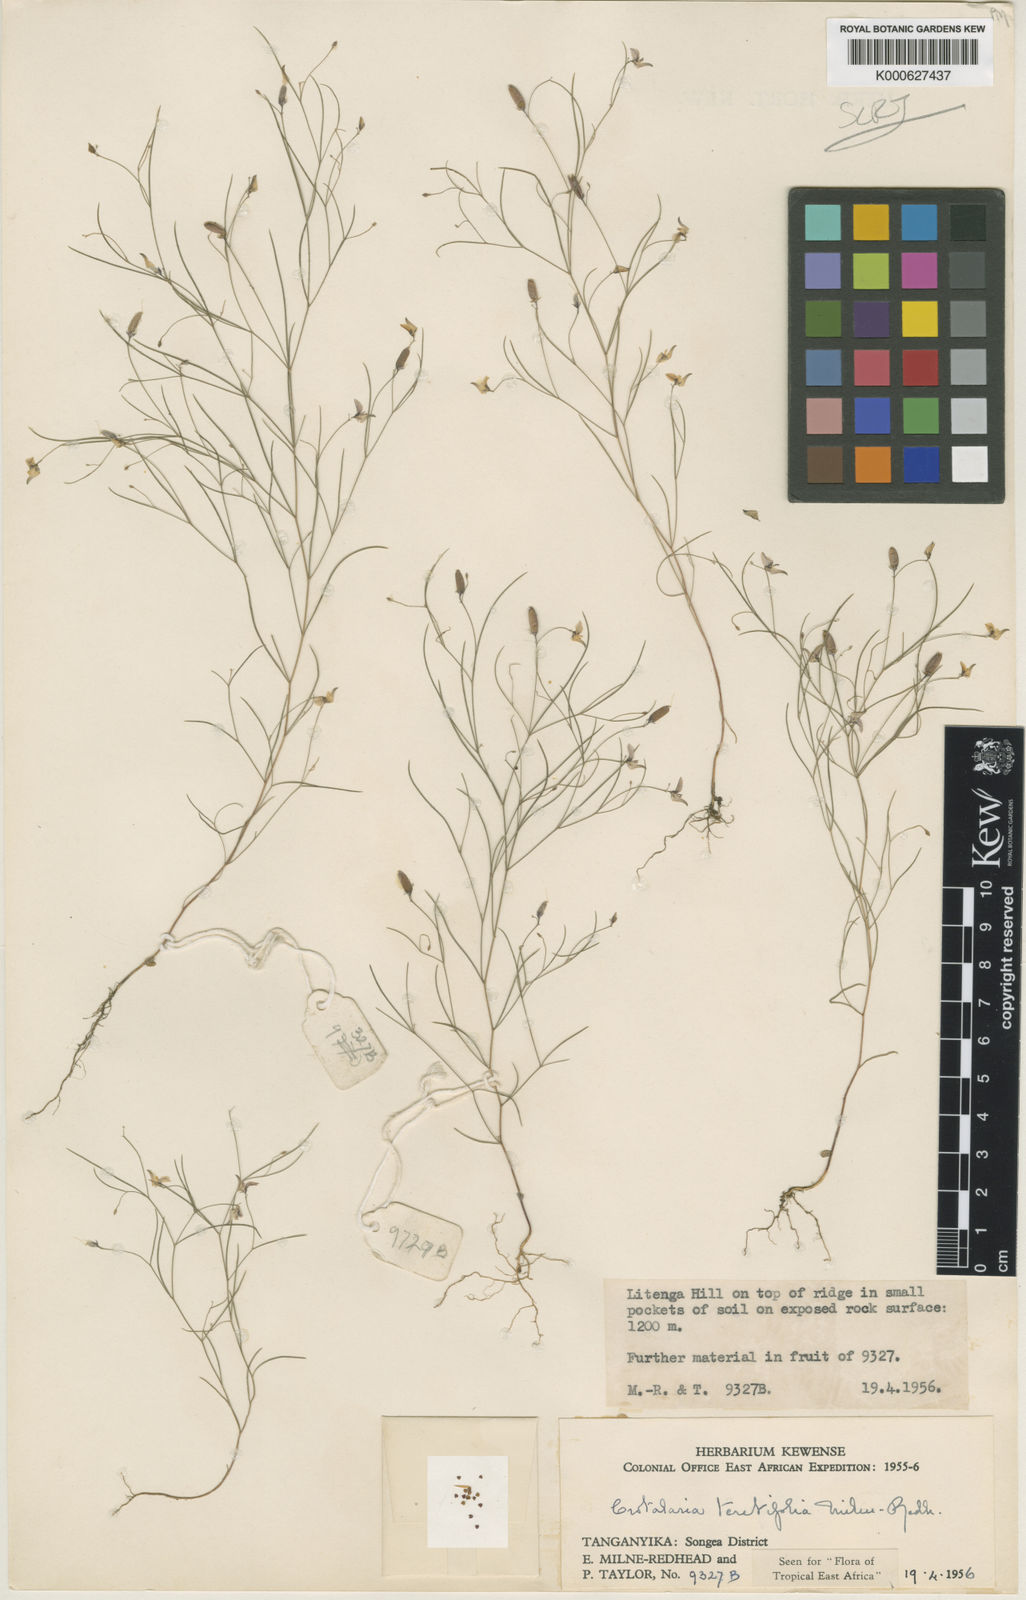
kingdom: Plantae
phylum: Tracheophyta
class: Magnoliopsida
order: Fabales
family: Fabaceae
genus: Crotalaria
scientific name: Crotalaria teretifolia
